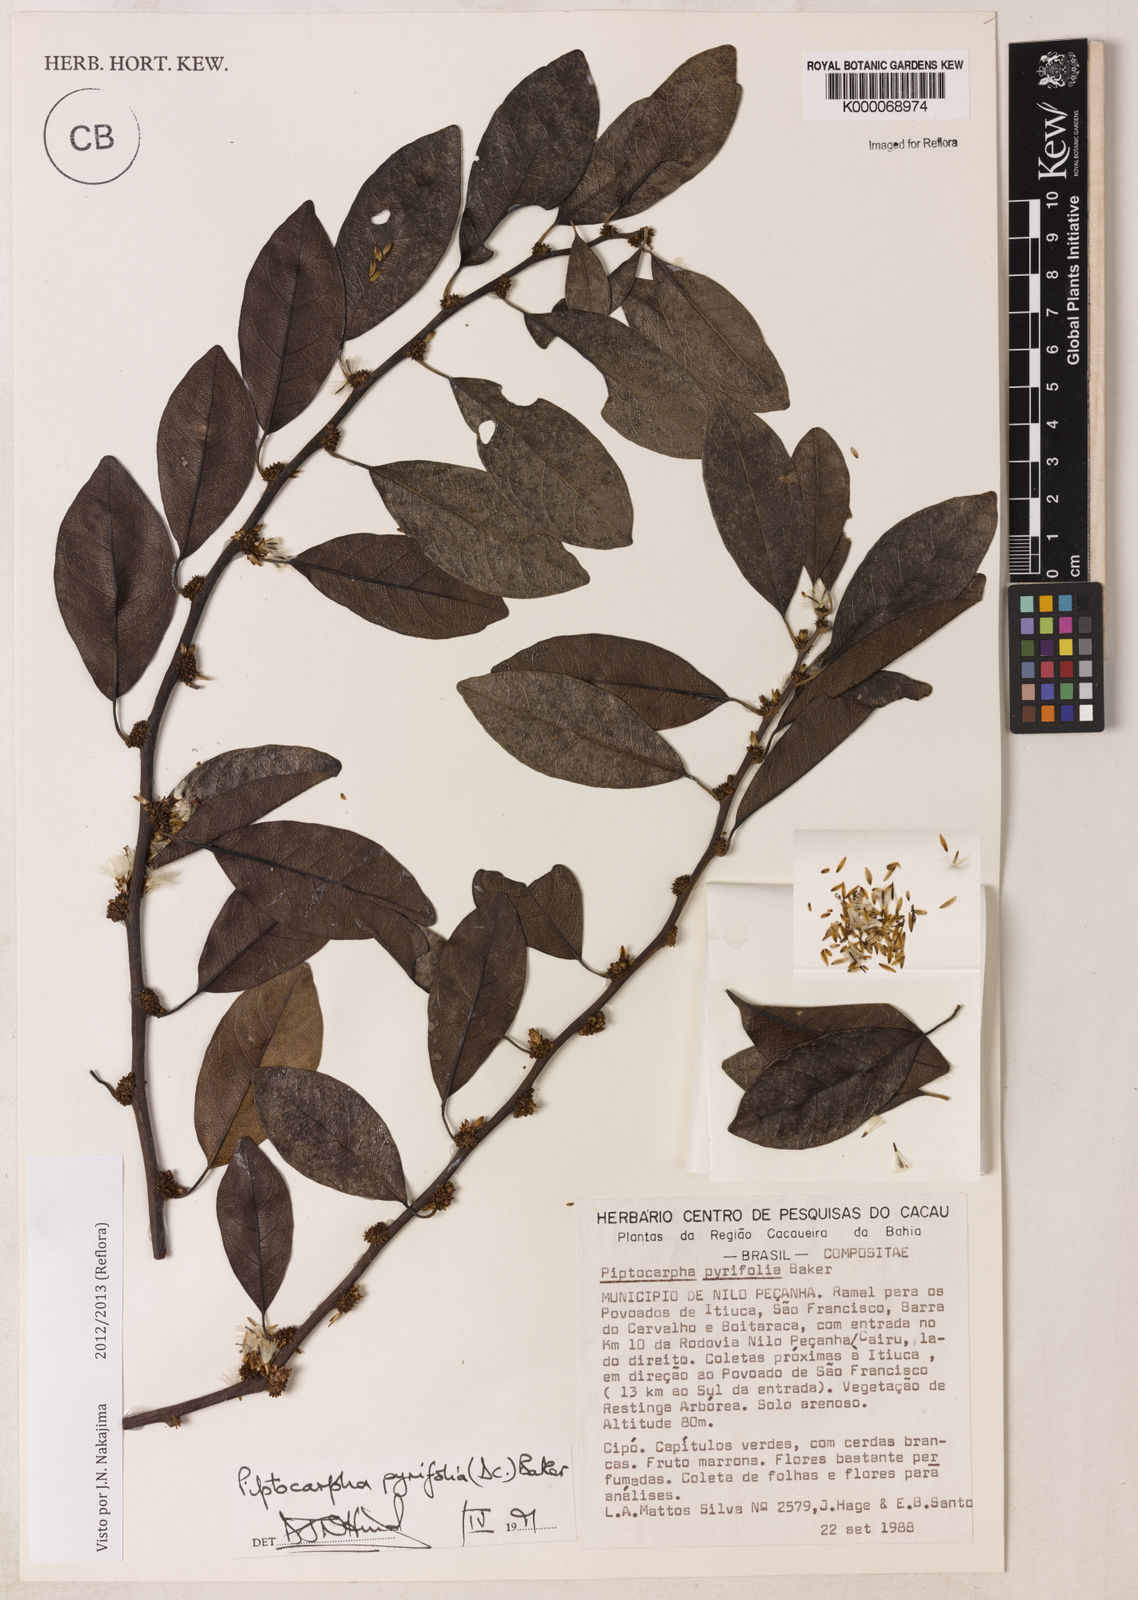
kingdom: Plantae
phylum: Tracheophyta
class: Magnoliopsida
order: Asterales
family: Asteraceae
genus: Piptocarpha
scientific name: Piptocarpha pyrifolia
